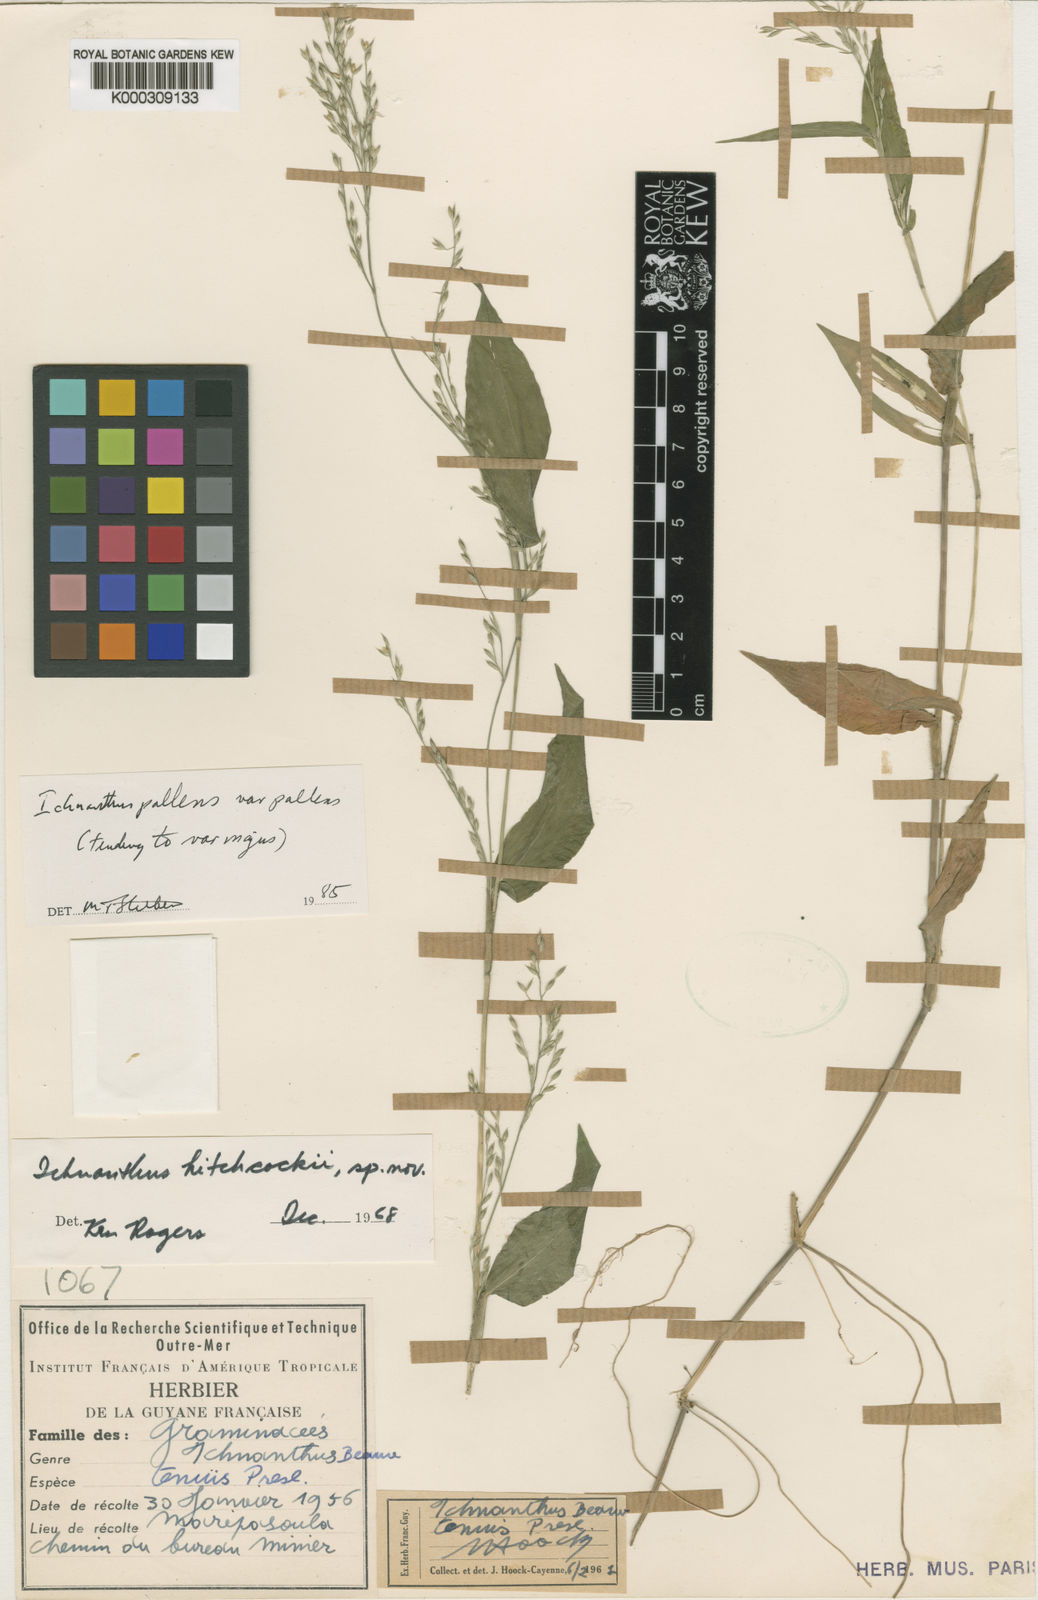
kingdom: Plantae
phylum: Tracheophyta
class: Liliopsida
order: Poales
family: Poaceae
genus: Ichnanthus
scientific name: Ichnanthus pallens
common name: Water grass
